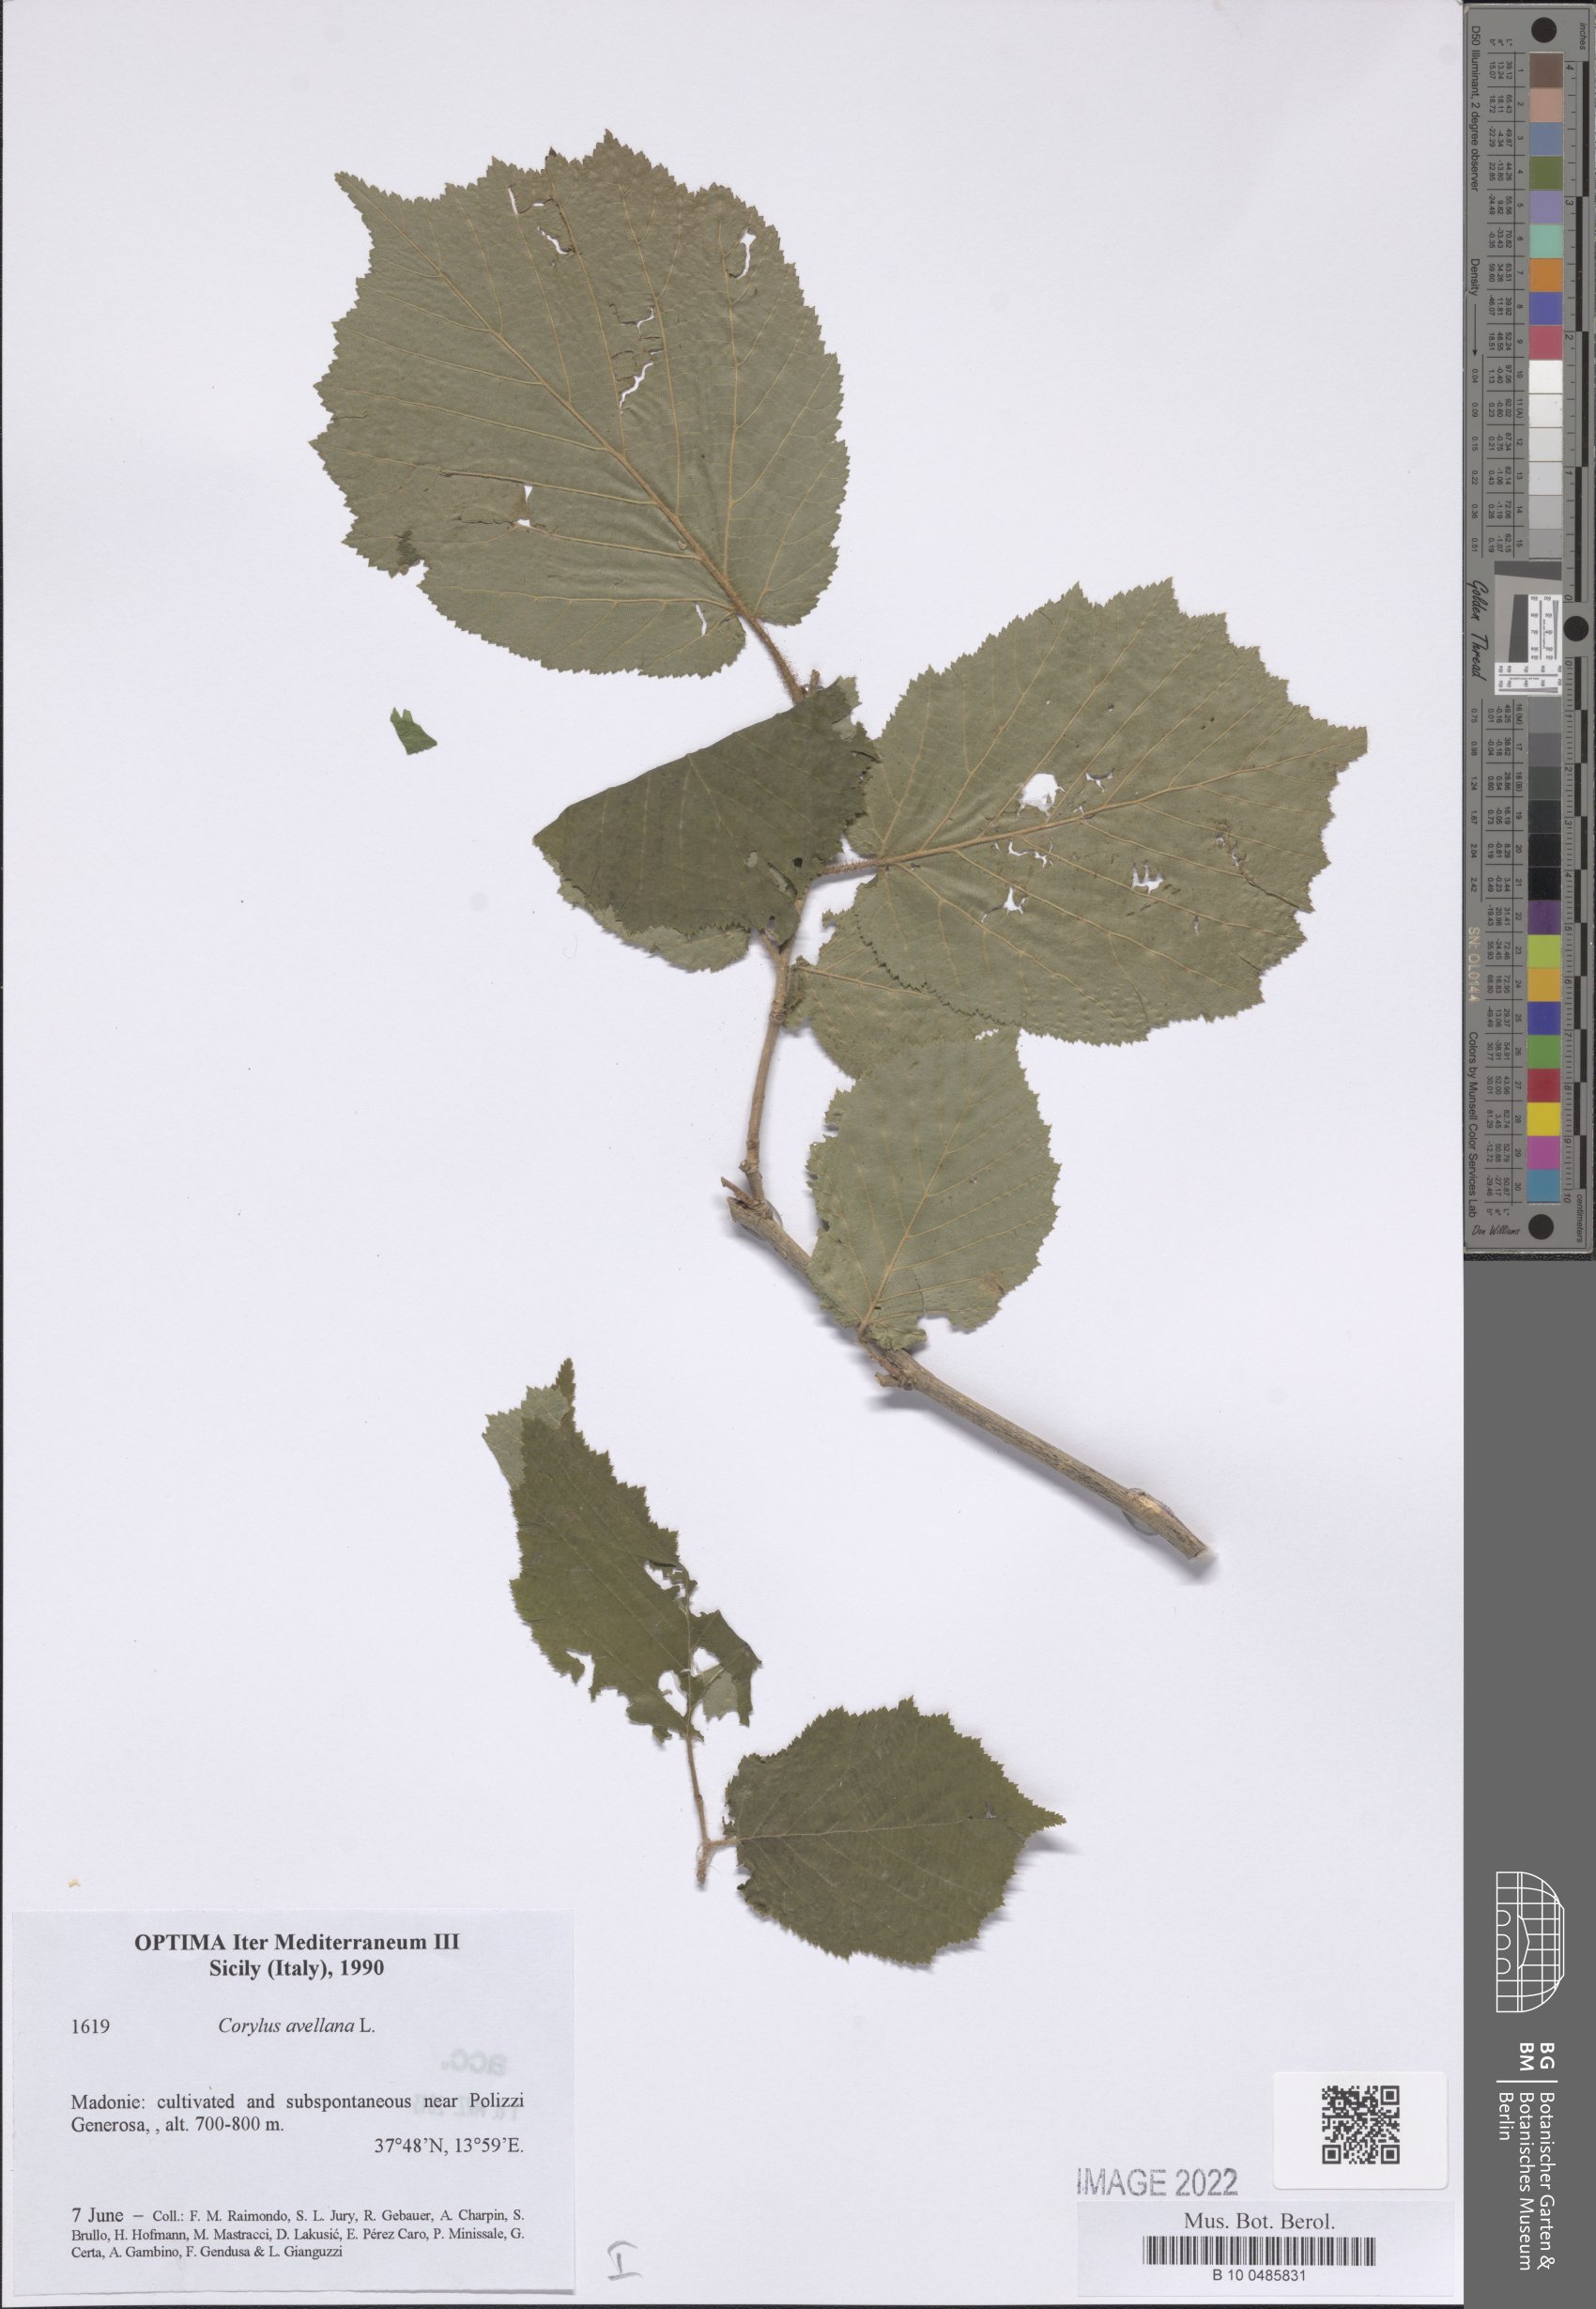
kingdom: Plantae
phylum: Tracheophyta
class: Magnoliopsida
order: Fagales
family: Betulaceae
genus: Corylus
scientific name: Corylus avellana
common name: European hazel
